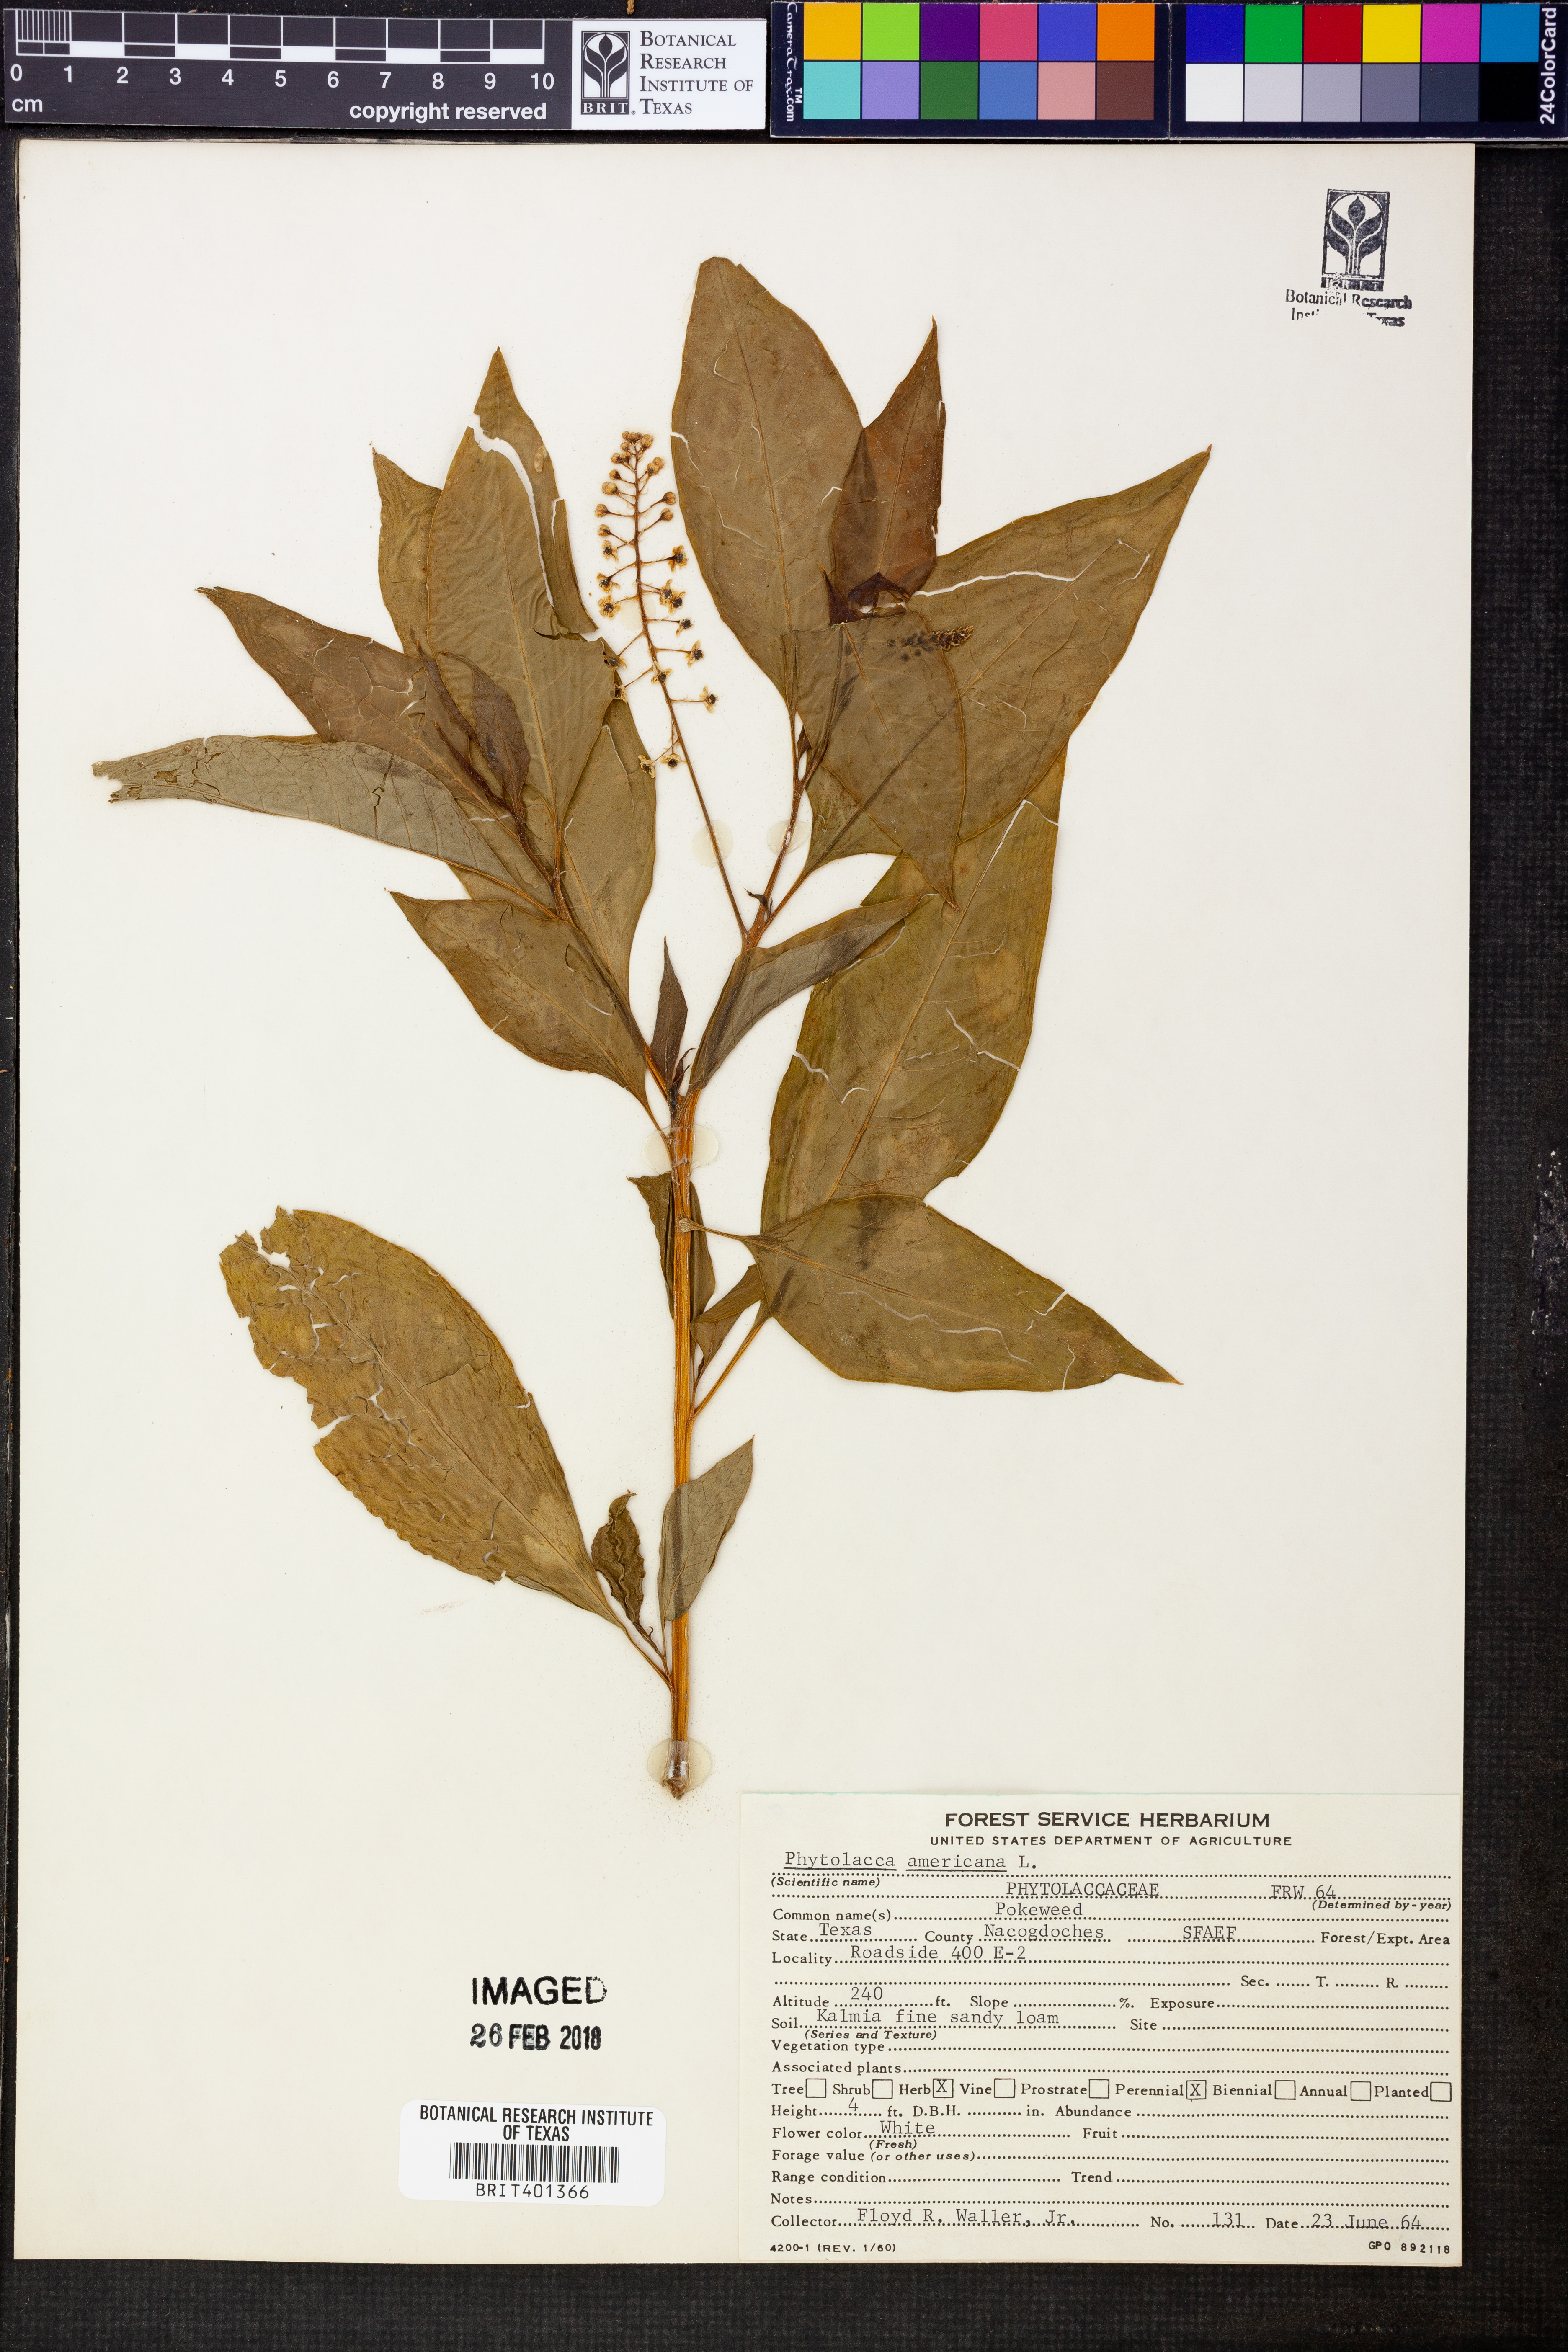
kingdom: Plantae
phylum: Tracheophyta
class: Magnoliopsida
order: Caryophyllales
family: Phytolaccaceae
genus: Phytolacca
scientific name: Phytolacca americana
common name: American pokeweed
